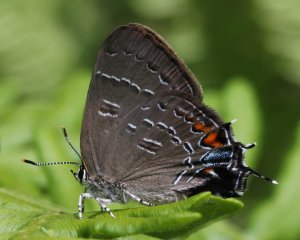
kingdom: Animalia
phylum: Arthropoda
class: Insecta
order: Lepidoptera
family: Lycaenidae
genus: Satyrium
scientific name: Satyrium calanus
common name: Banded Hairstreak
